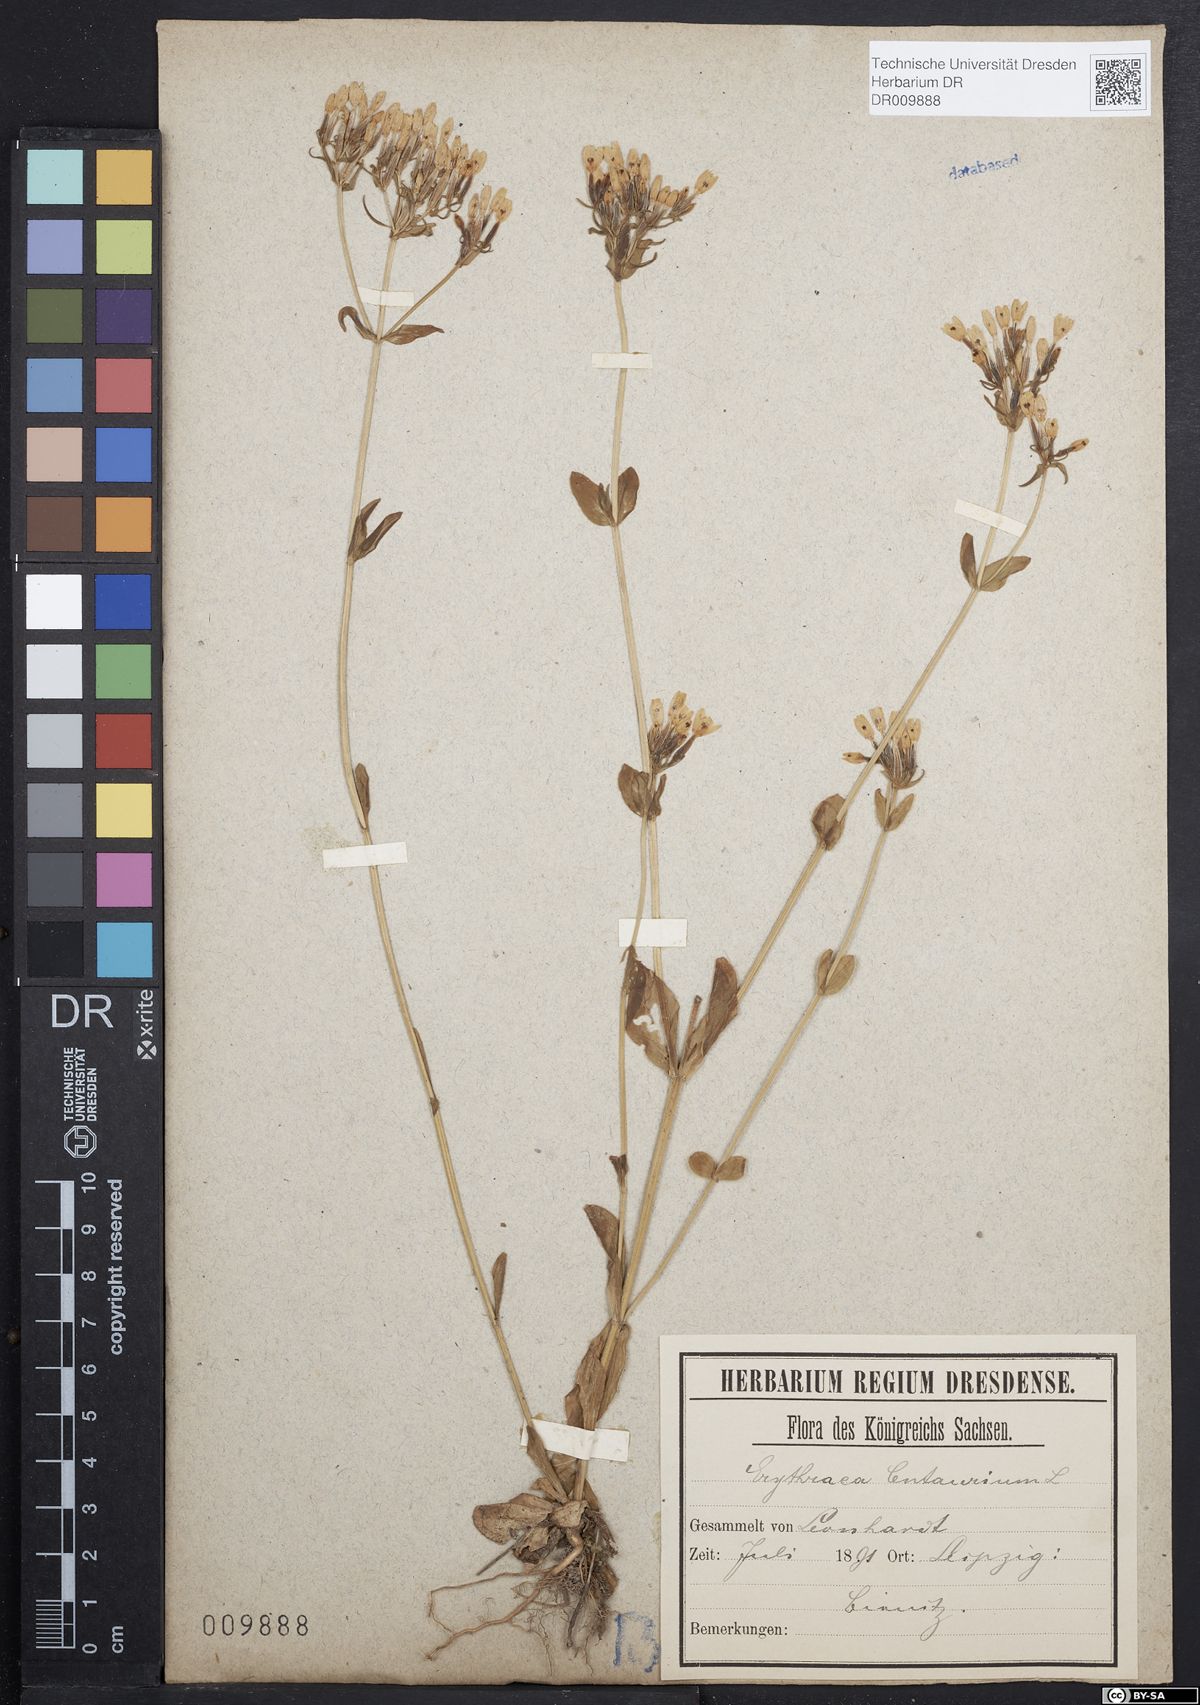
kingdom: Plantae
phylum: Tracheophyta
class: Magnoliopsida
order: Gentianales
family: Gentianaceae
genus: Centaurium
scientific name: Centaurium erythraea
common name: Common centaury
